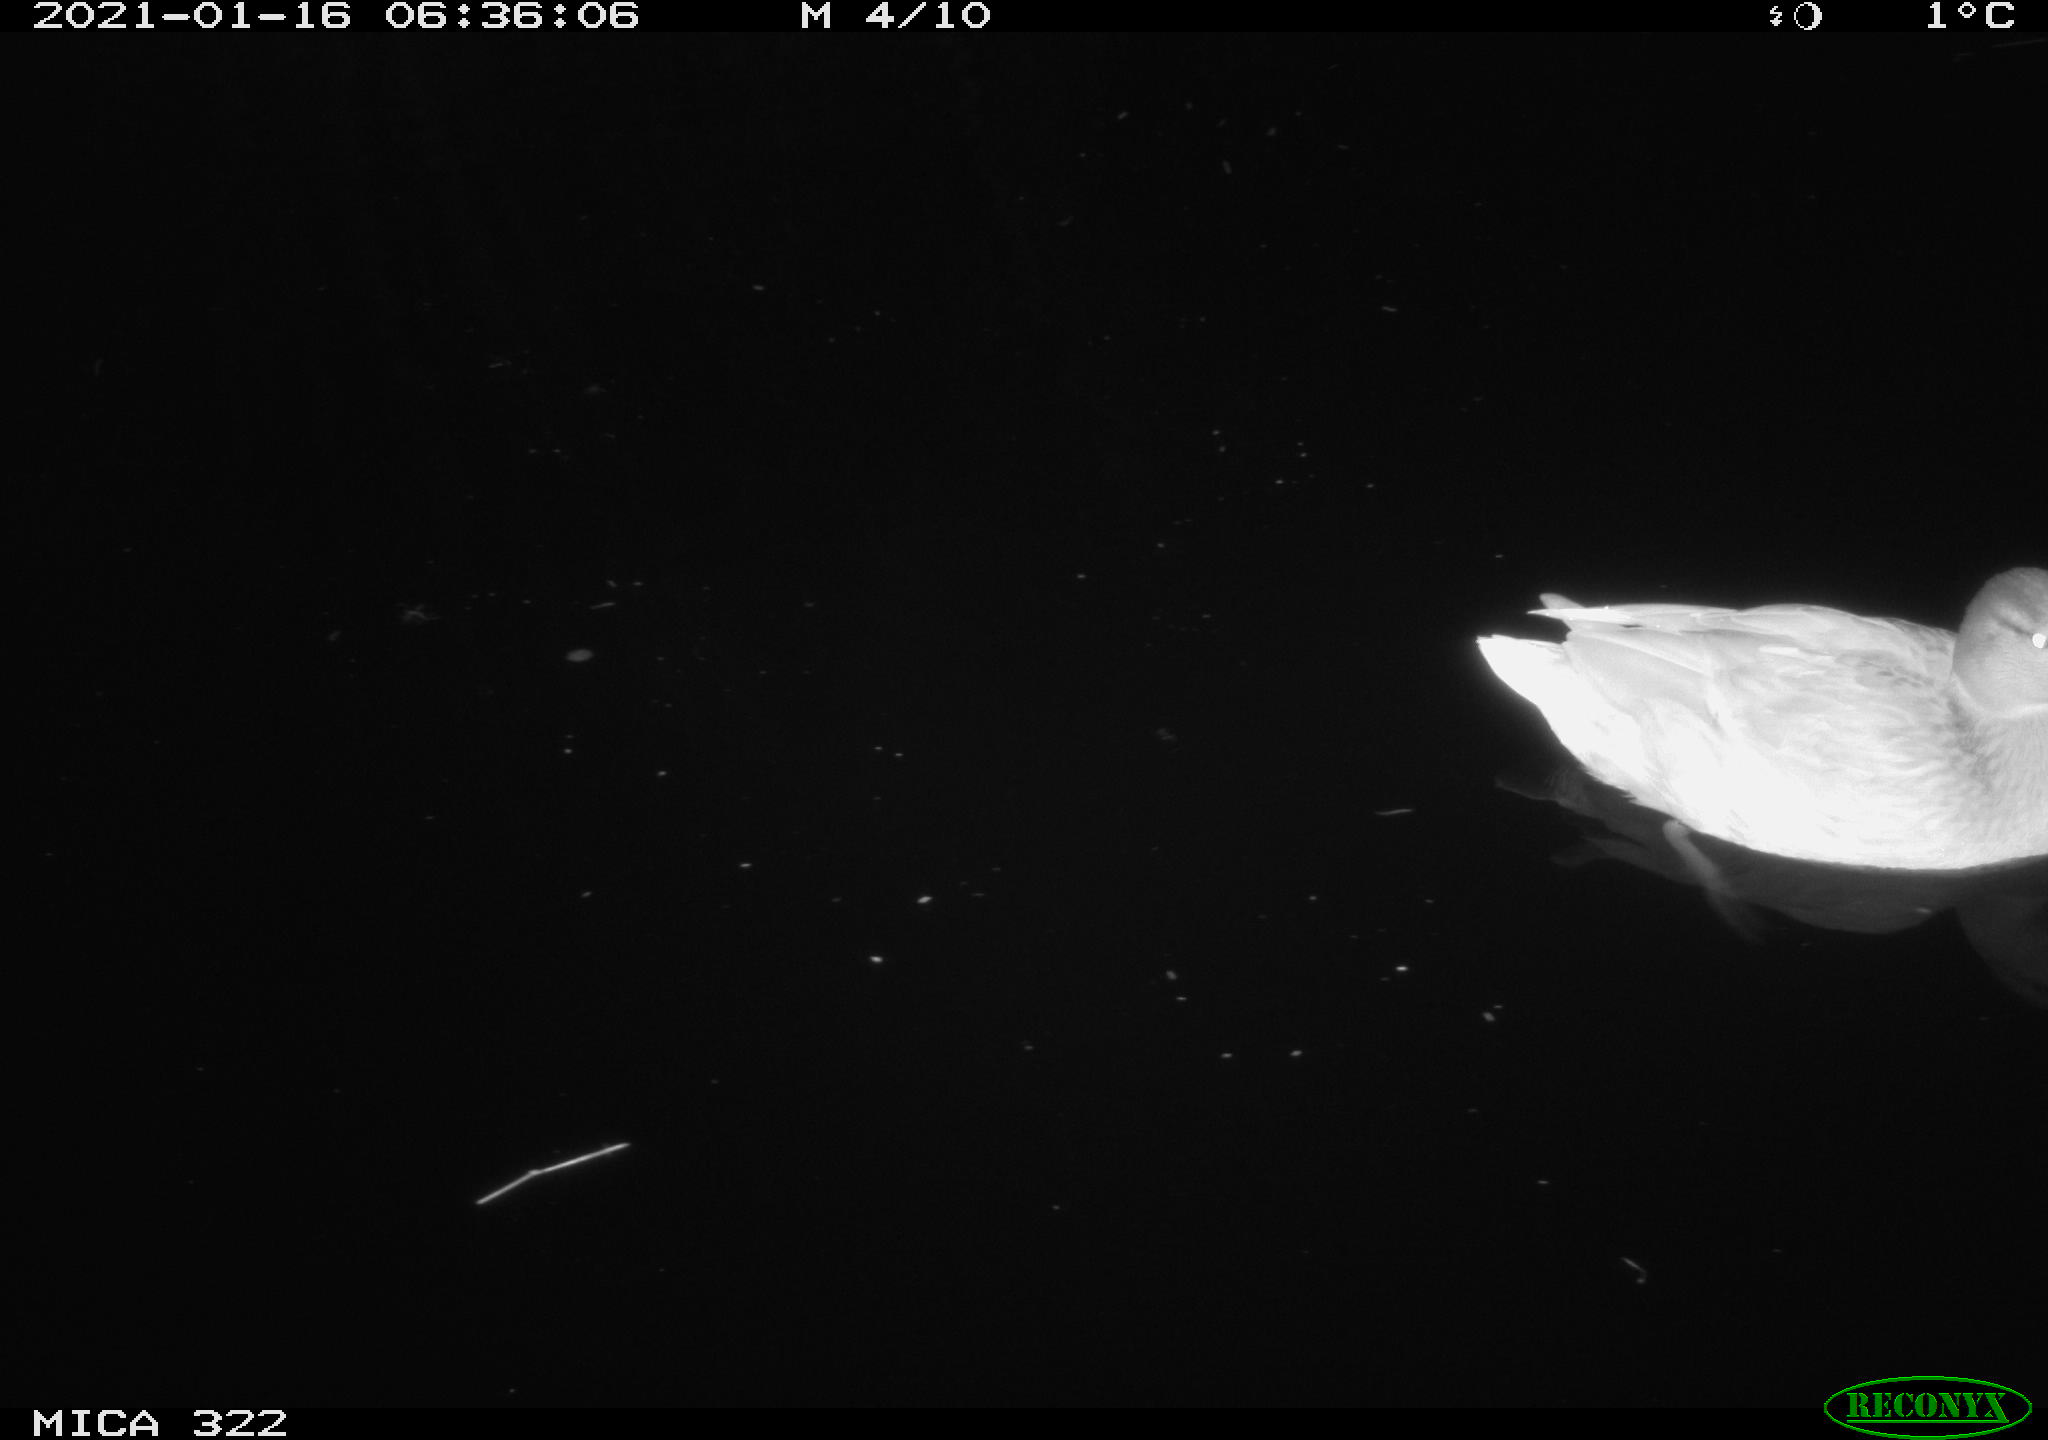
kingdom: Animalia
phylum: Chordata
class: Aves
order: Anseriformes
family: Anatidae
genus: Anas
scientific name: Anas platyrhynchos
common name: Mallard
